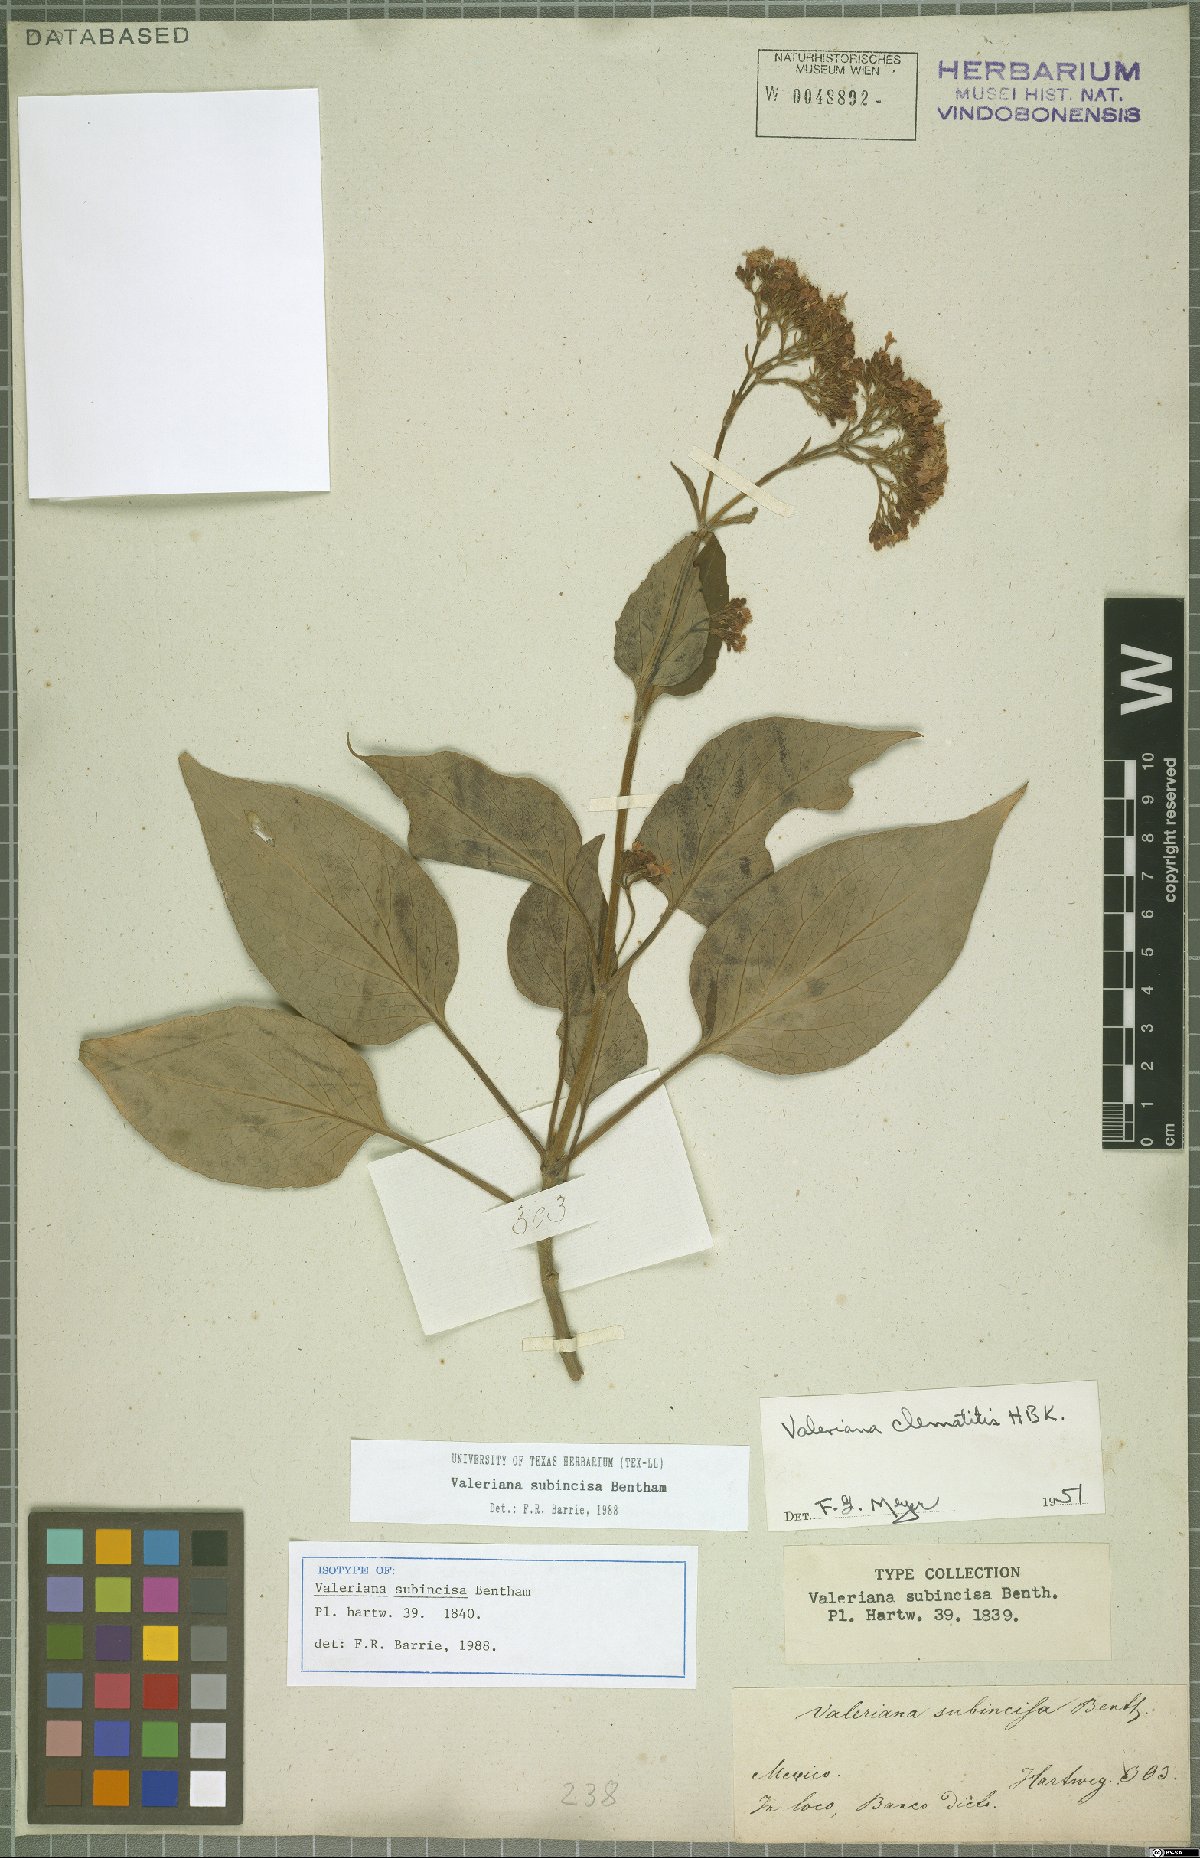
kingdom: Plantae
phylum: Tracheophyta
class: Magnoliopsida
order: Dipsacales
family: Caprifoliaceae
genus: Valeriana
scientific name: Valeriana clematitis
